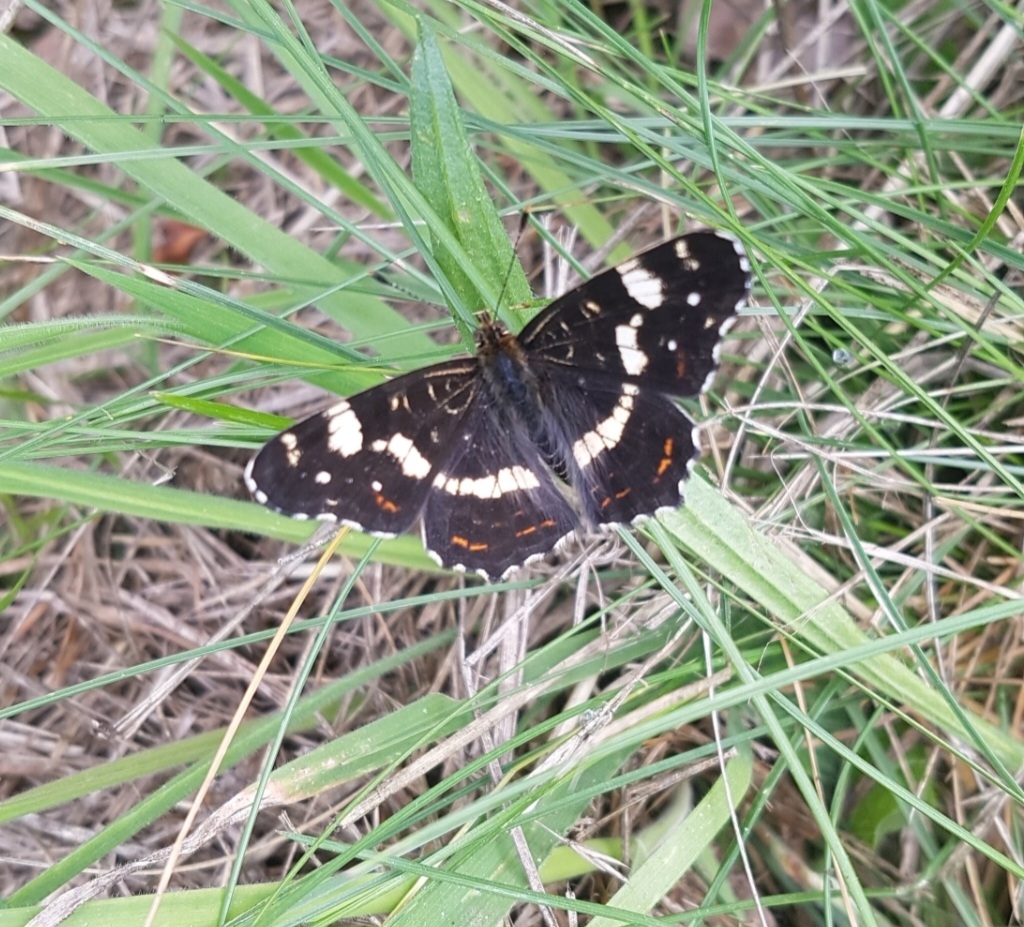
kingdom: Animalia
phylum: Arthropoda
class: Insecta
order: Lepidoptera
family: Nymphalidae
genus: Araschnia
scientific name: Araschnia levana
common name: Nældesommerfugl
